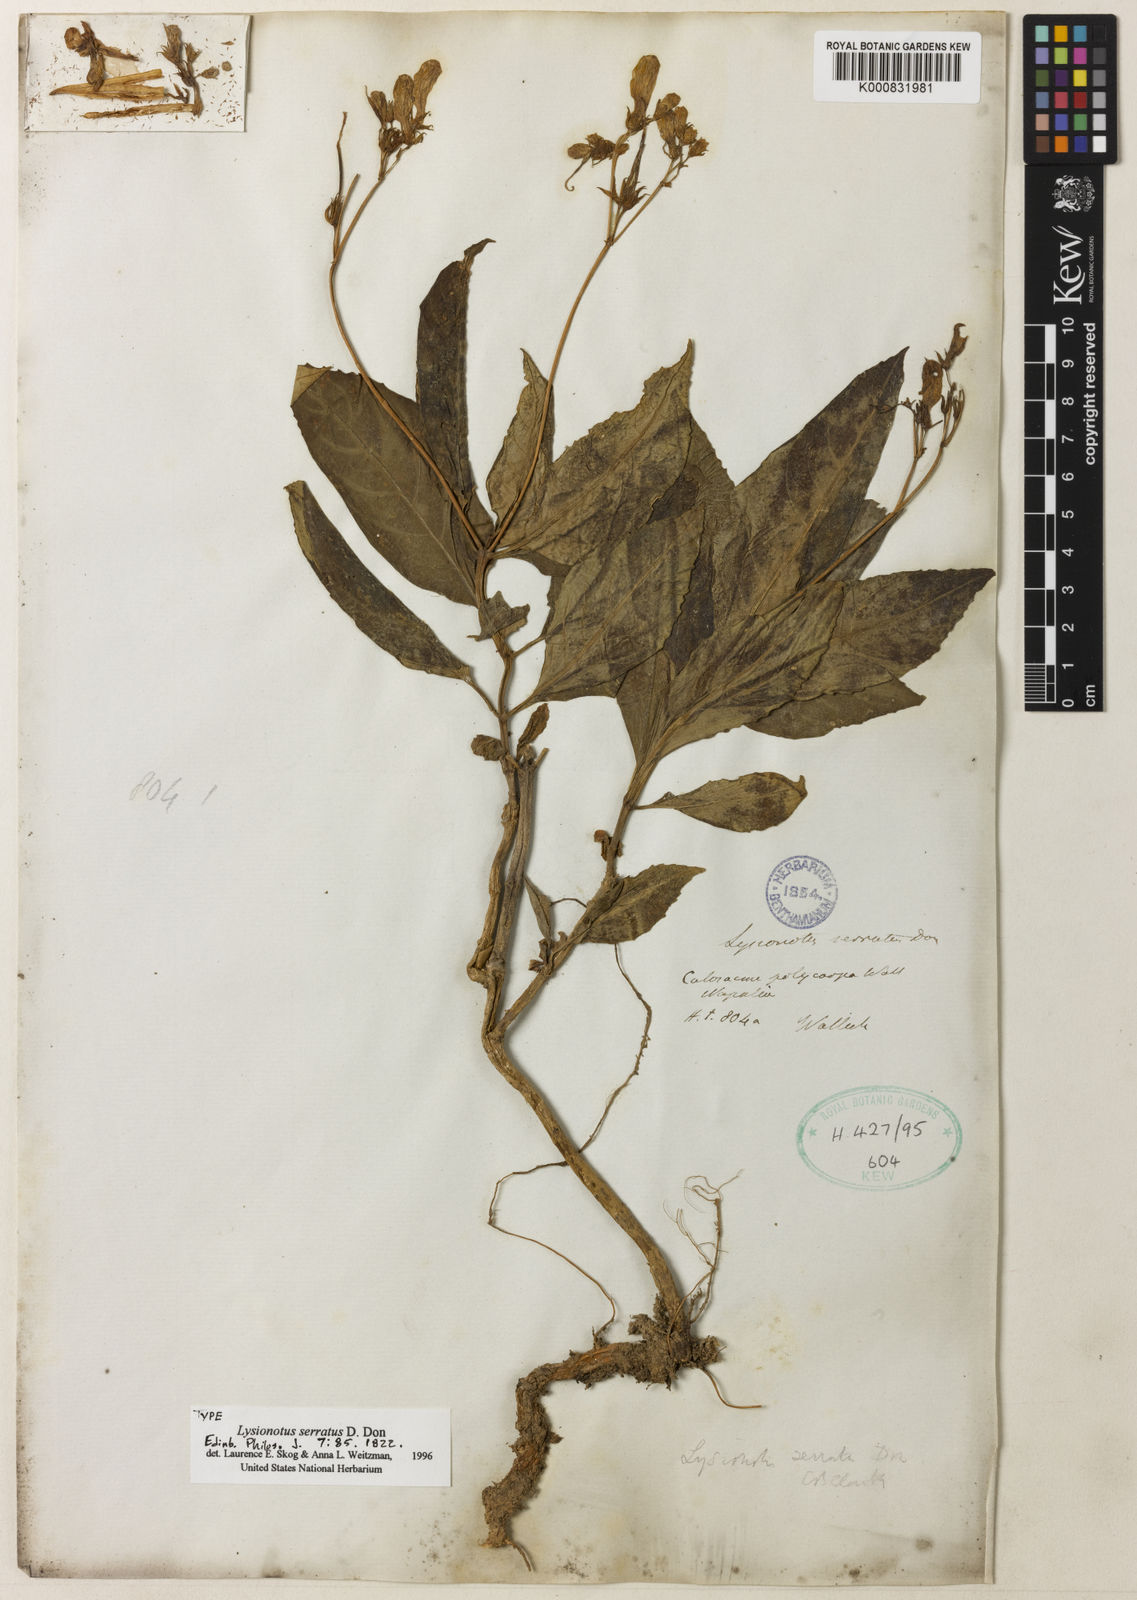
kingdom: Plantae
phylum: Tracheophyta
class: Magnoliopsida
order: Lamiales
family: Gesneriaceae
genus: Lysionotus
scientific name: Lysionotus serratus
